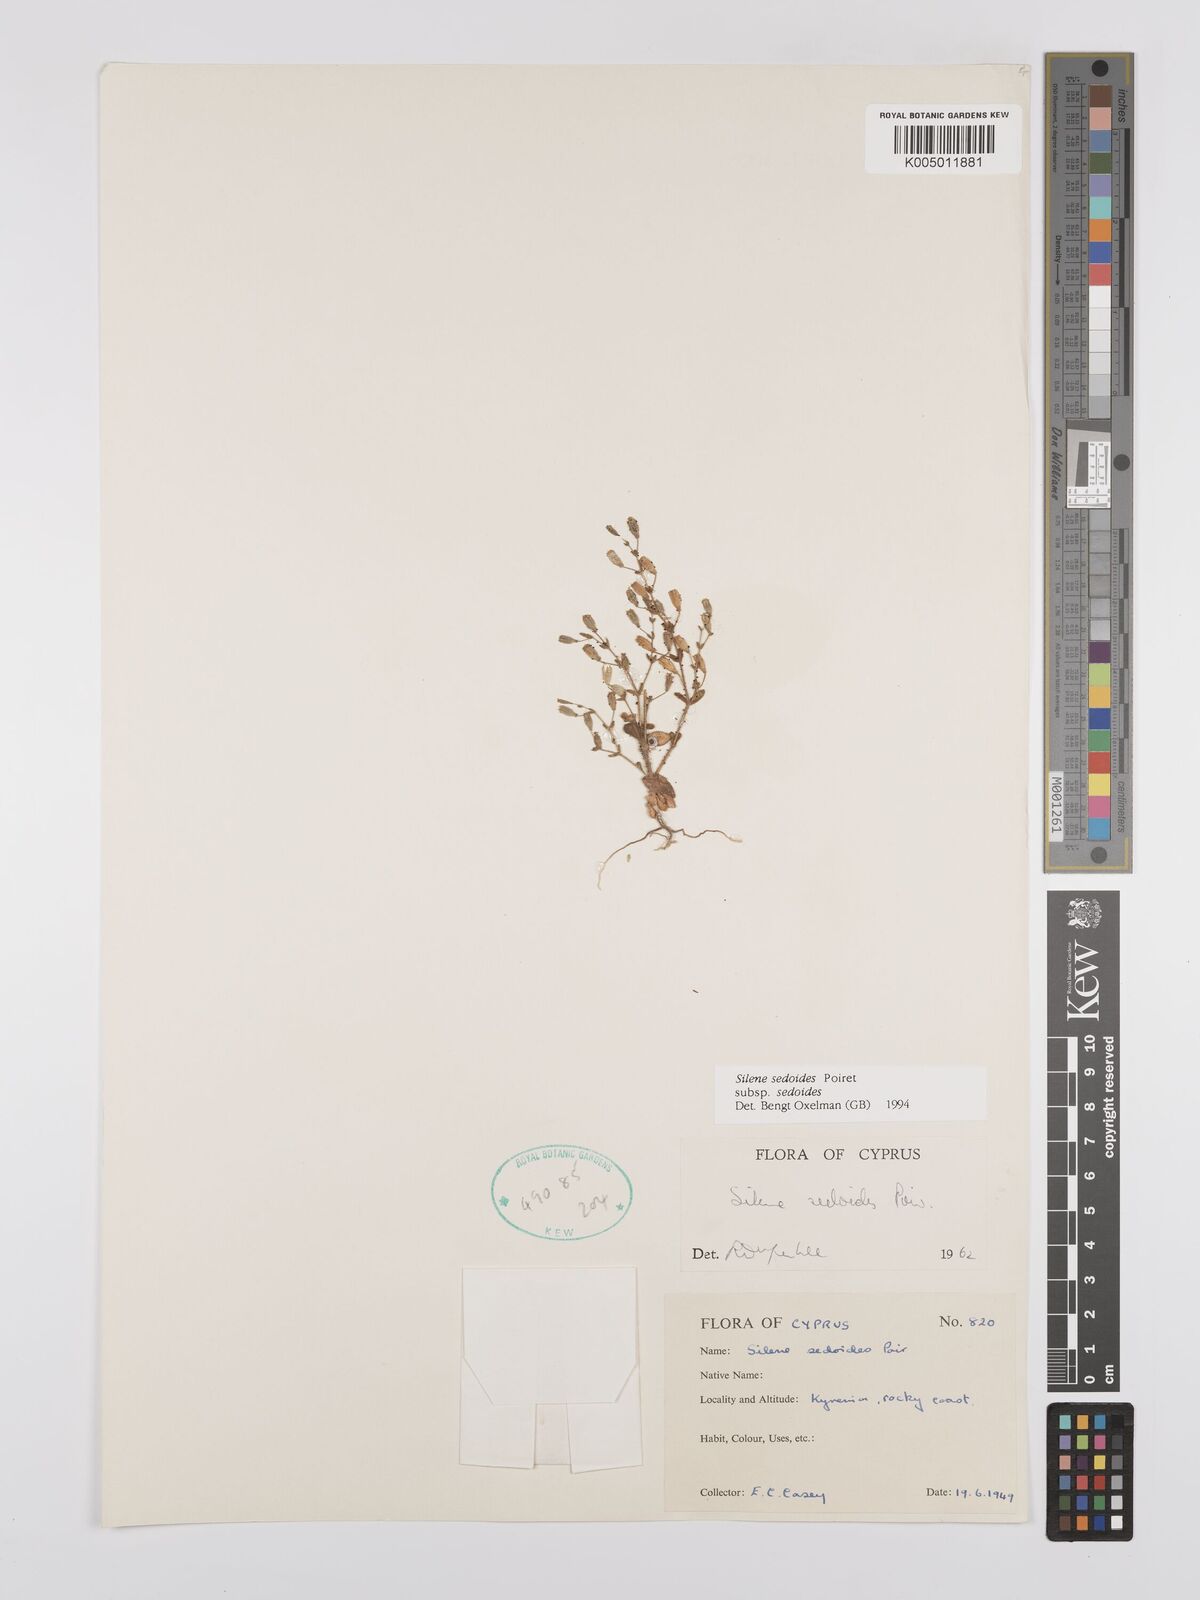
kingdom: Plantae
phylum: Tracheophyta
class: Magnoliopsida
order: Caryophyllales
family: Caryophyllaceae
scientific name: Caryophyllaceae
